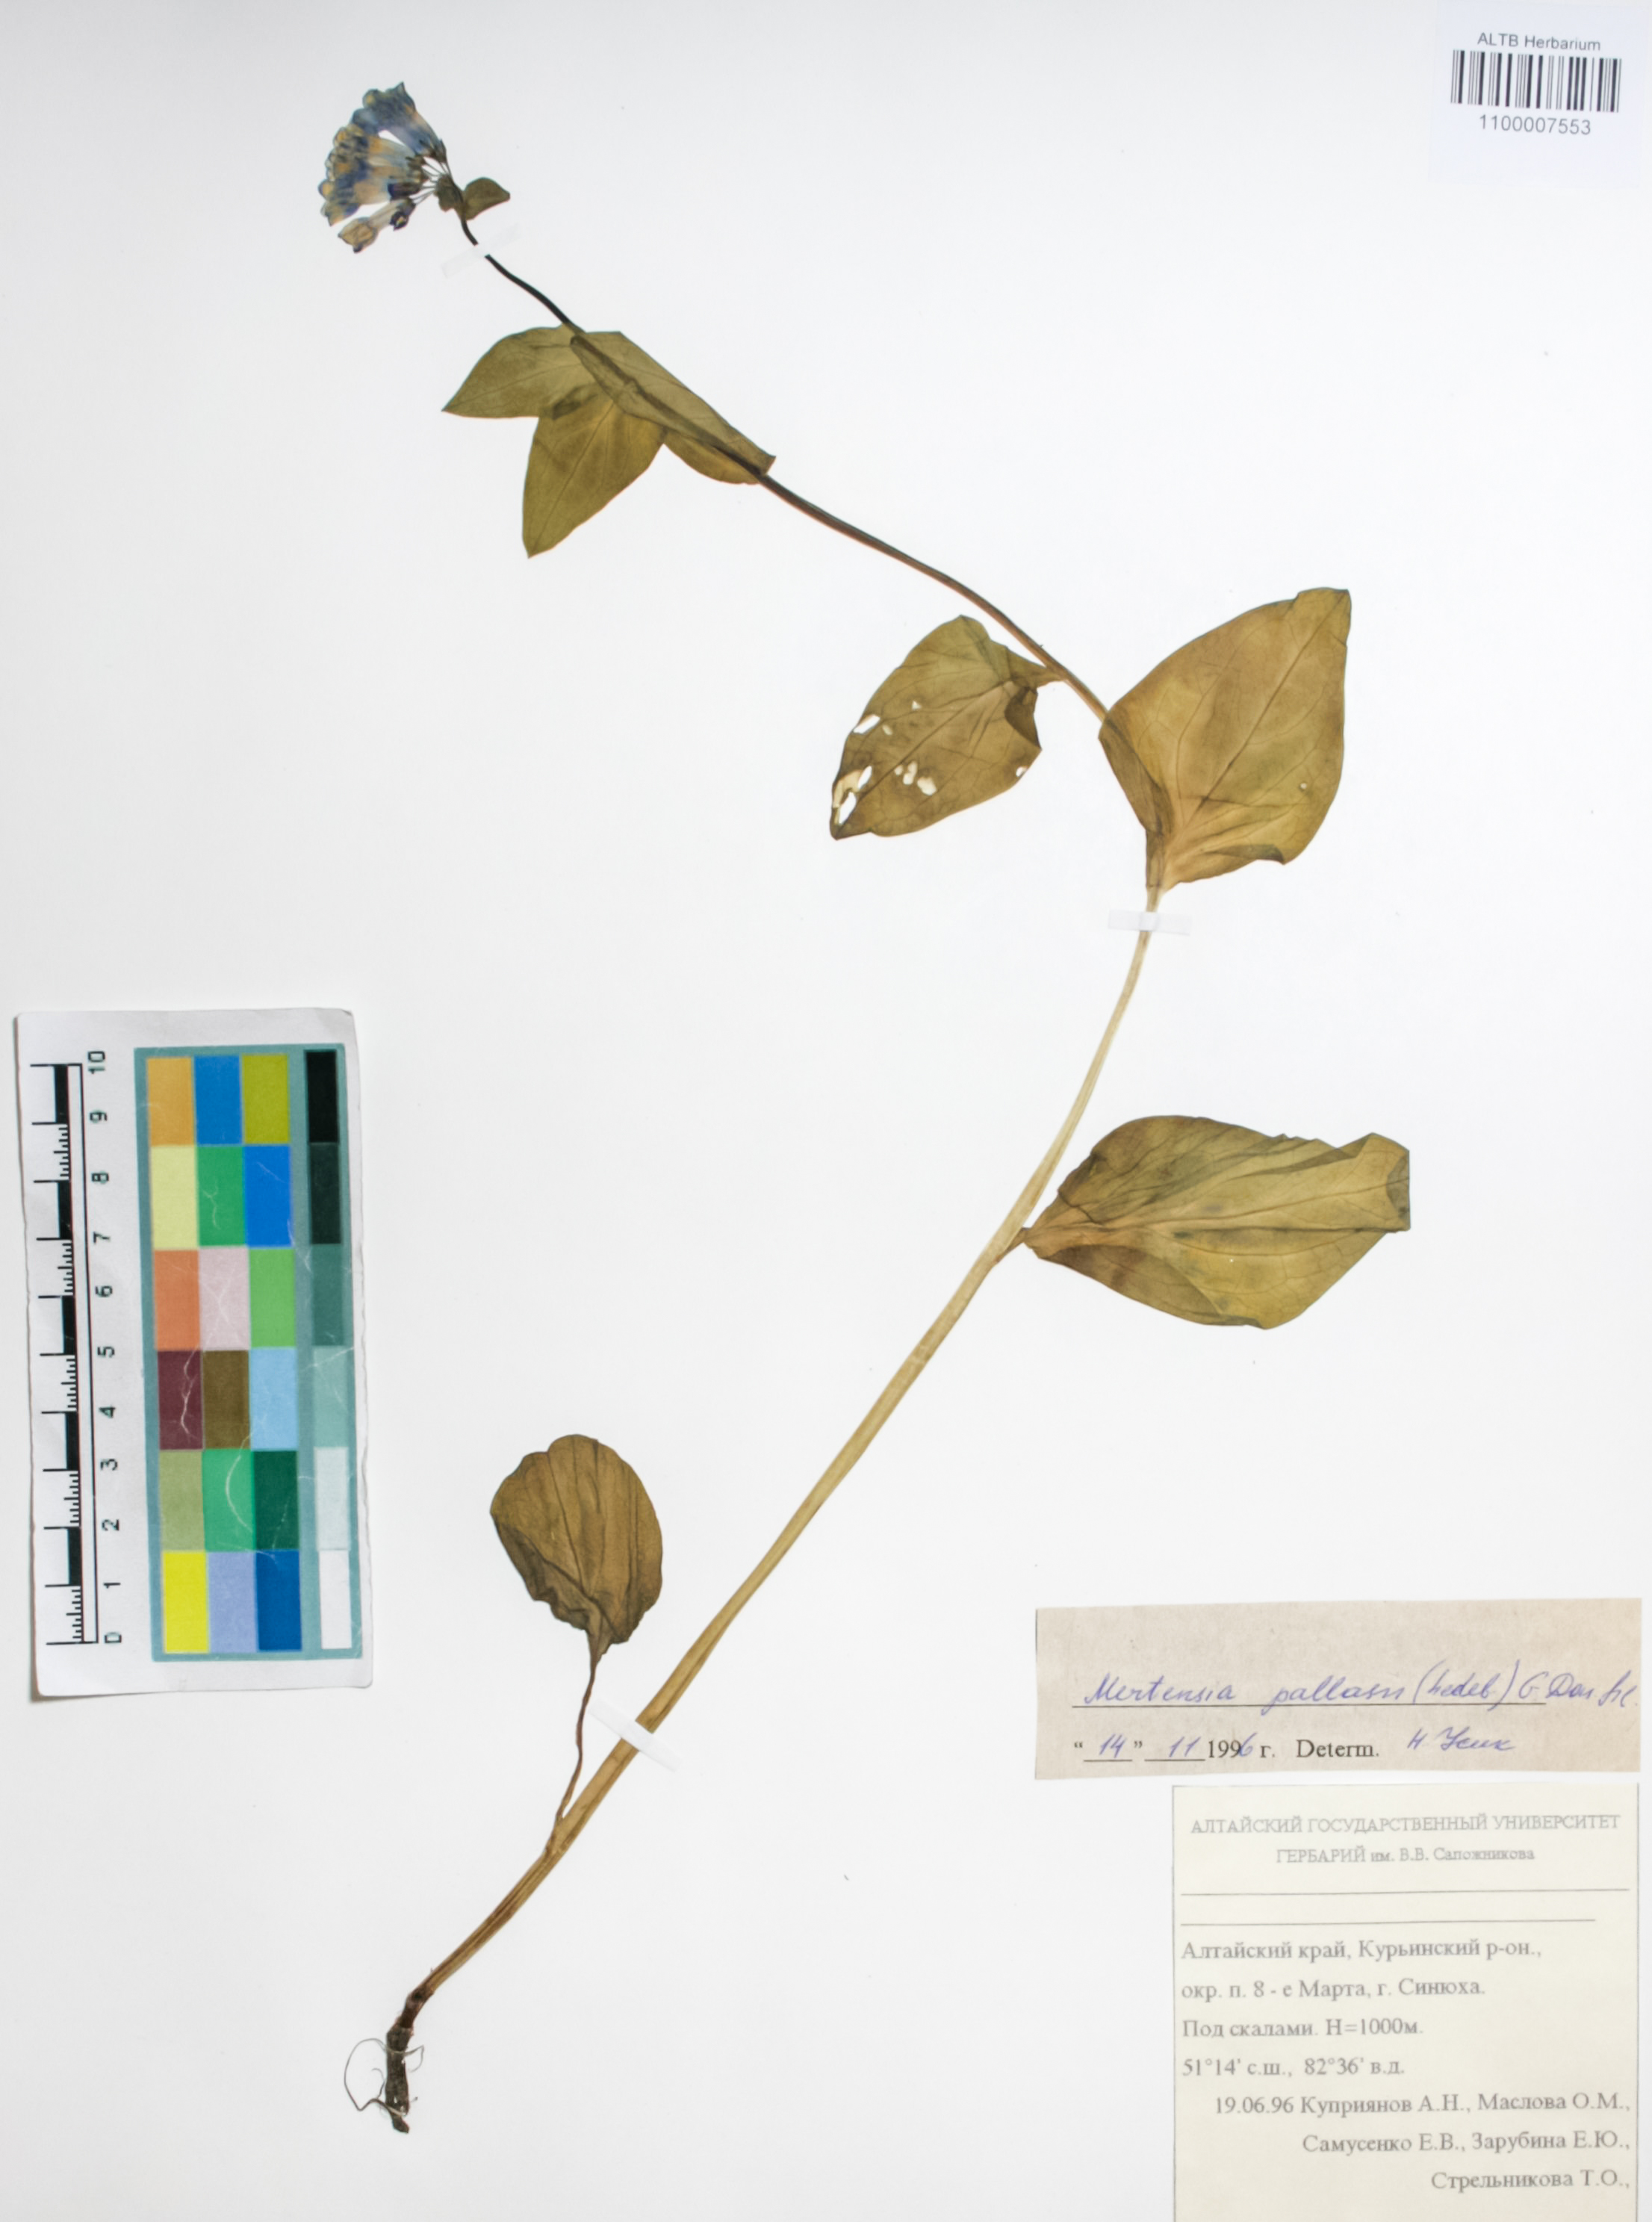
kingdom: Plantae
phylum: Tracheophyta
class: Magnoliopsida
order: Boraginales
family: Boraginaceae
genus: Mertensia
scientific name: Mertensia pallasii
